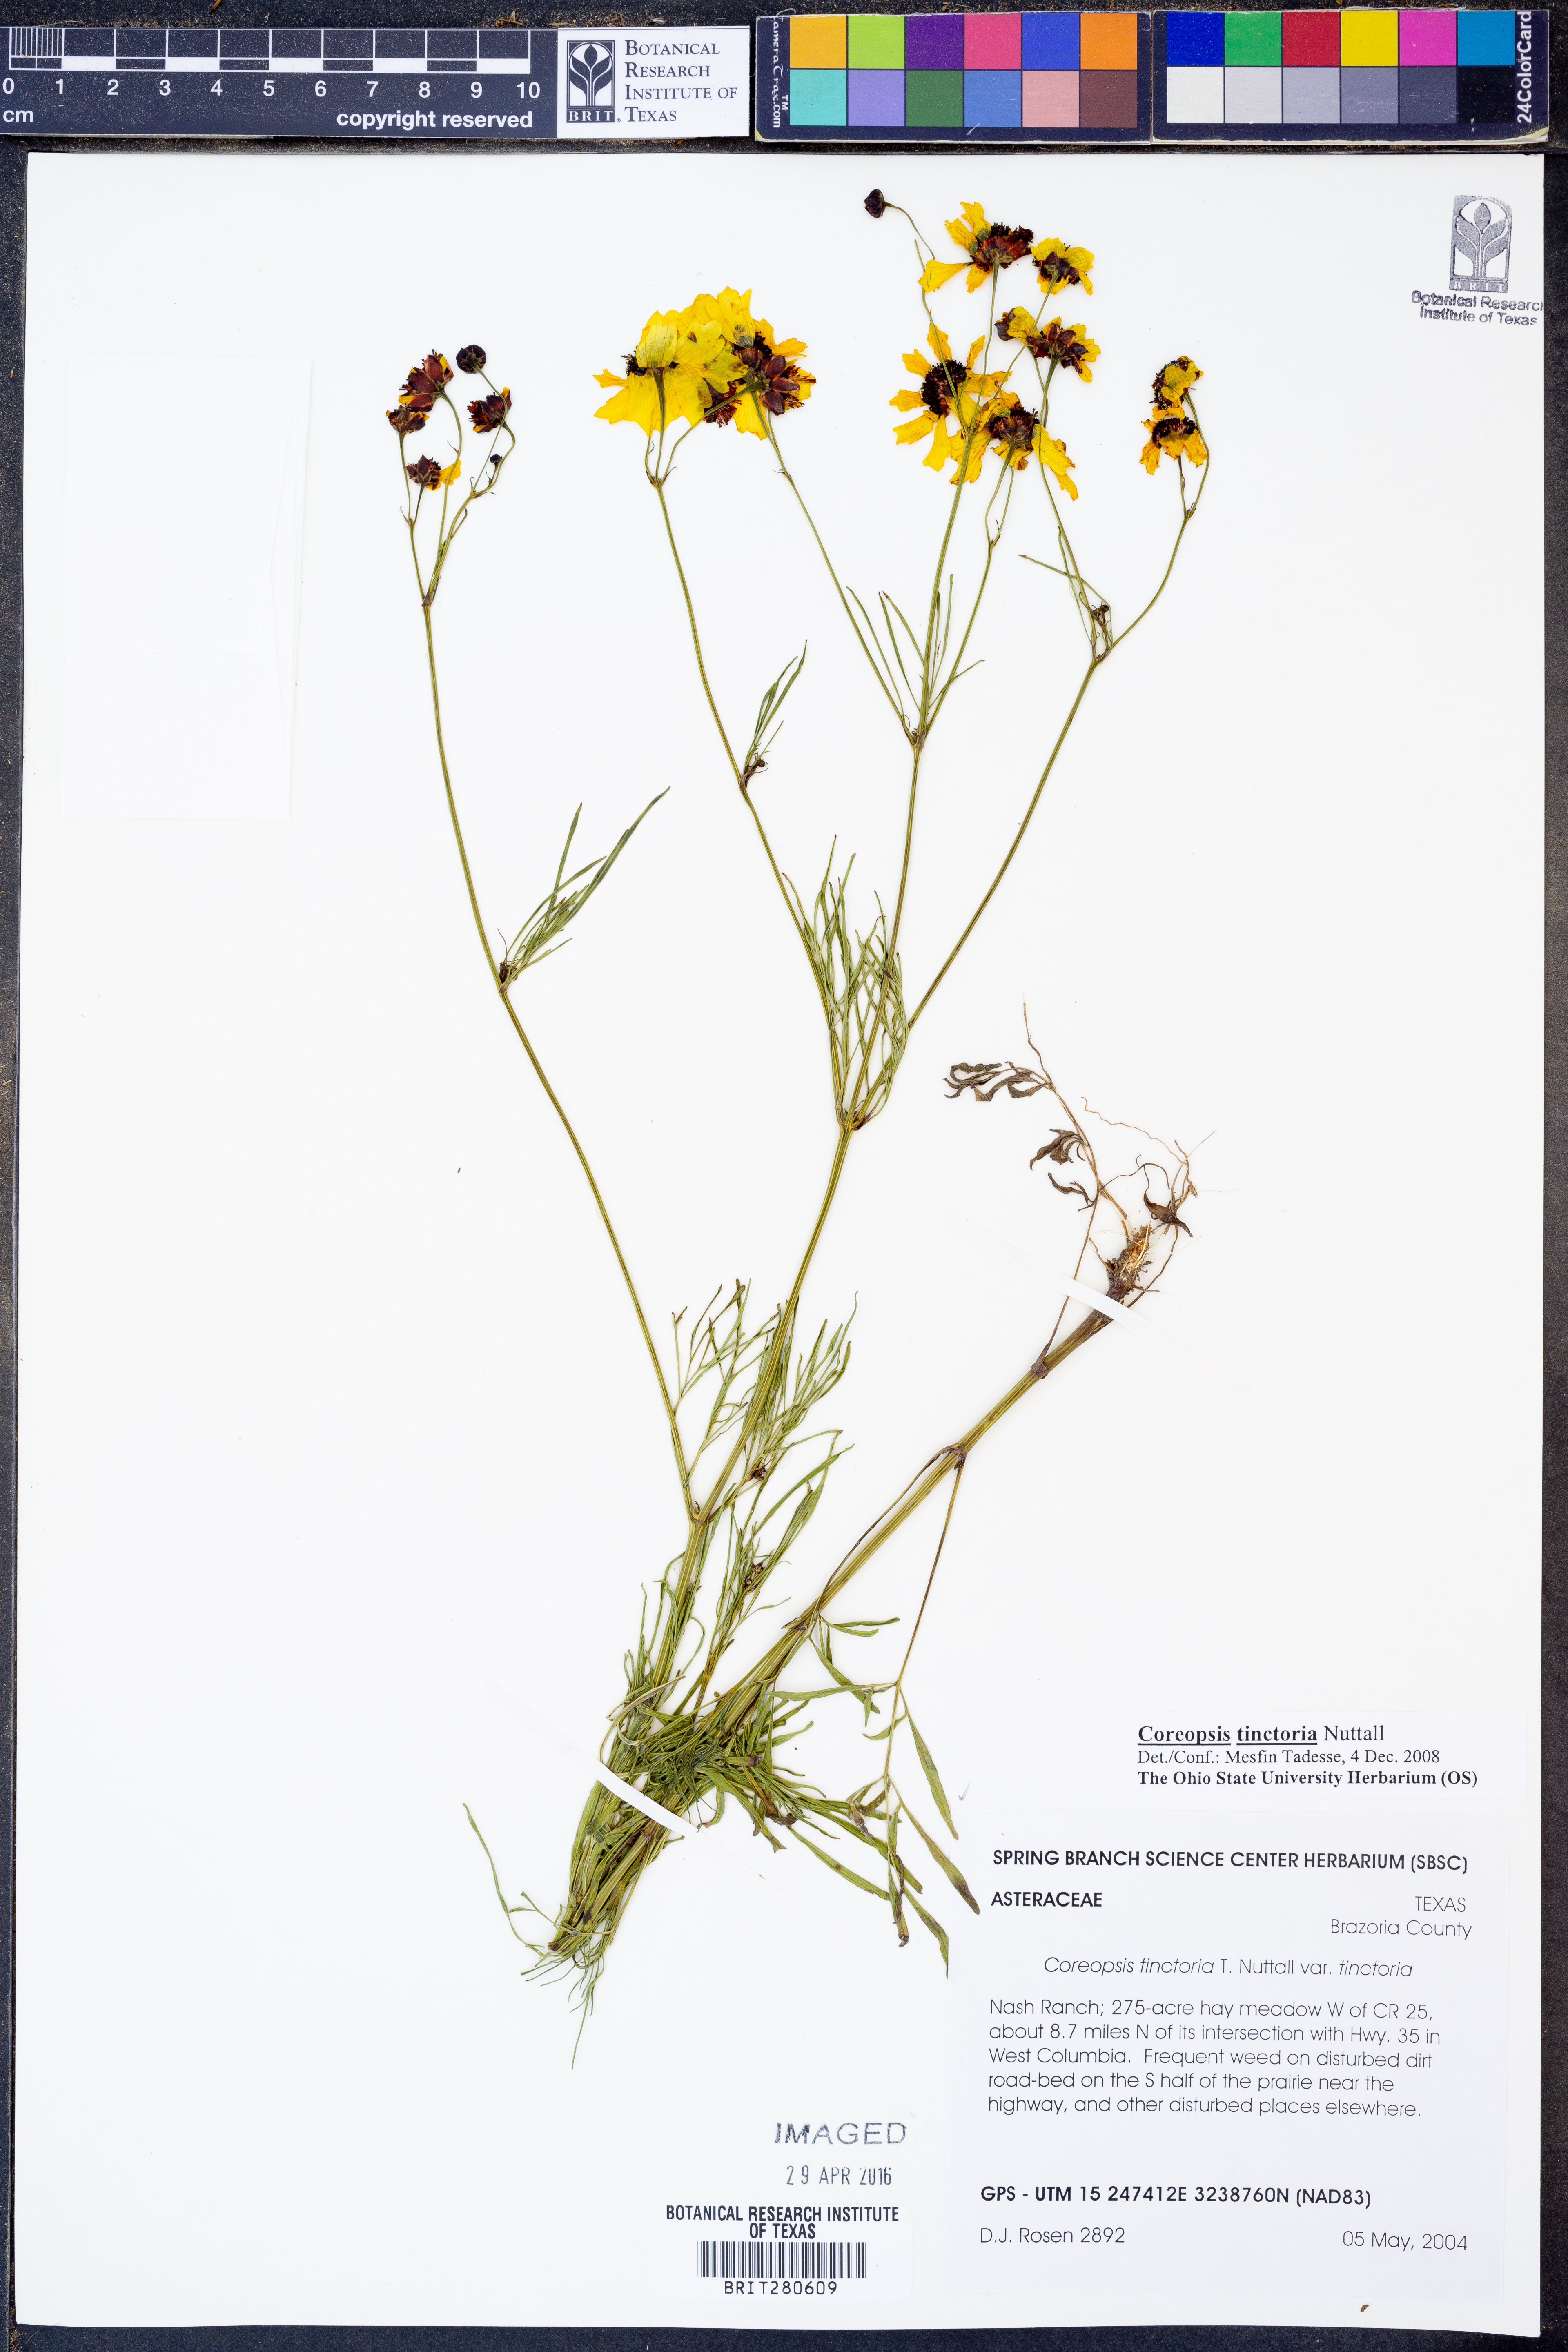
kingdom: Plantae
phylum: Tracheophyta
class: Magnoliopsida
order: Asterales
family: Asteraceae
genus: Coreopsis
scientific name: Coreopsis tinctoria
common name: Garden tickseed
